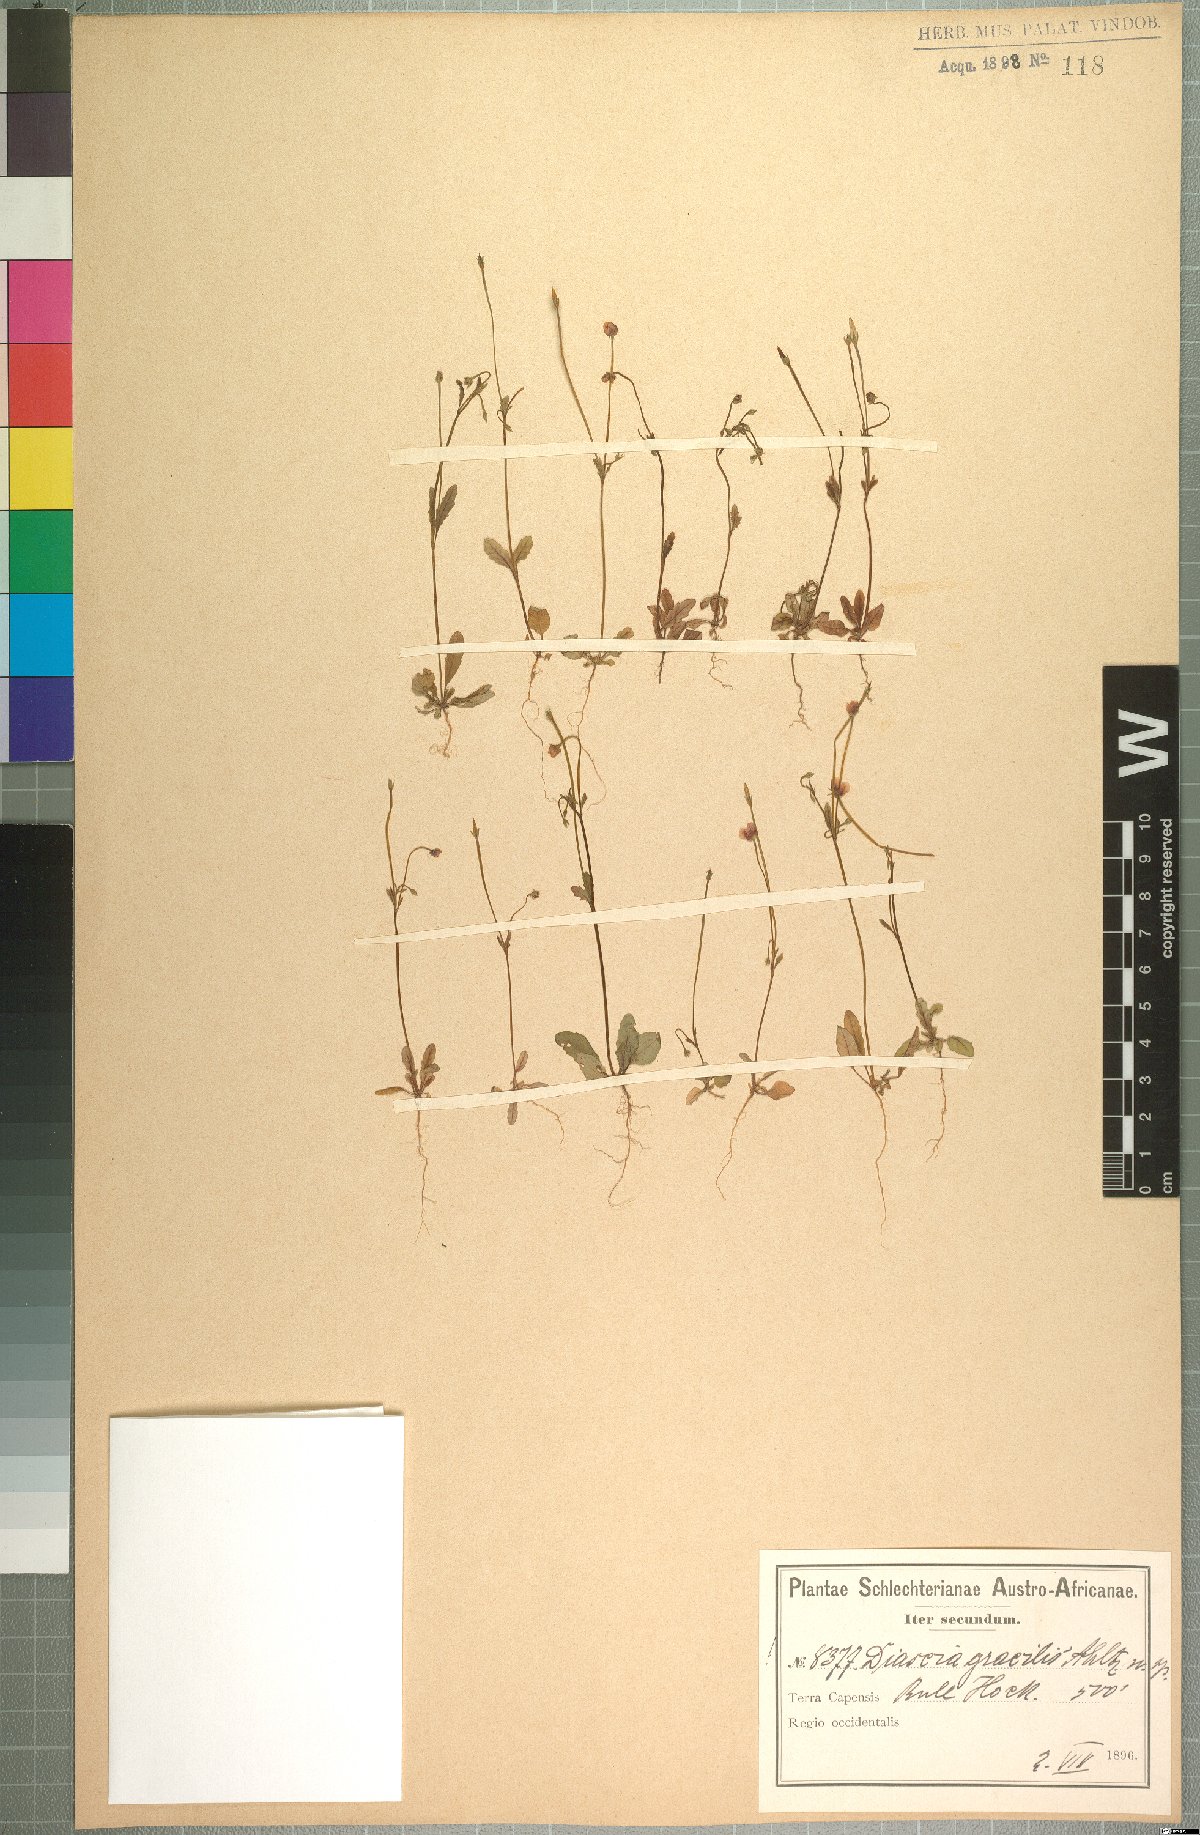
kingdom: Plantae
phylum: Tracheophyta
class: Magnoliopsida
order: Lamiales
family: Scrophulariaceae
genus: Diascia
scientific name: Diascia gracilis
